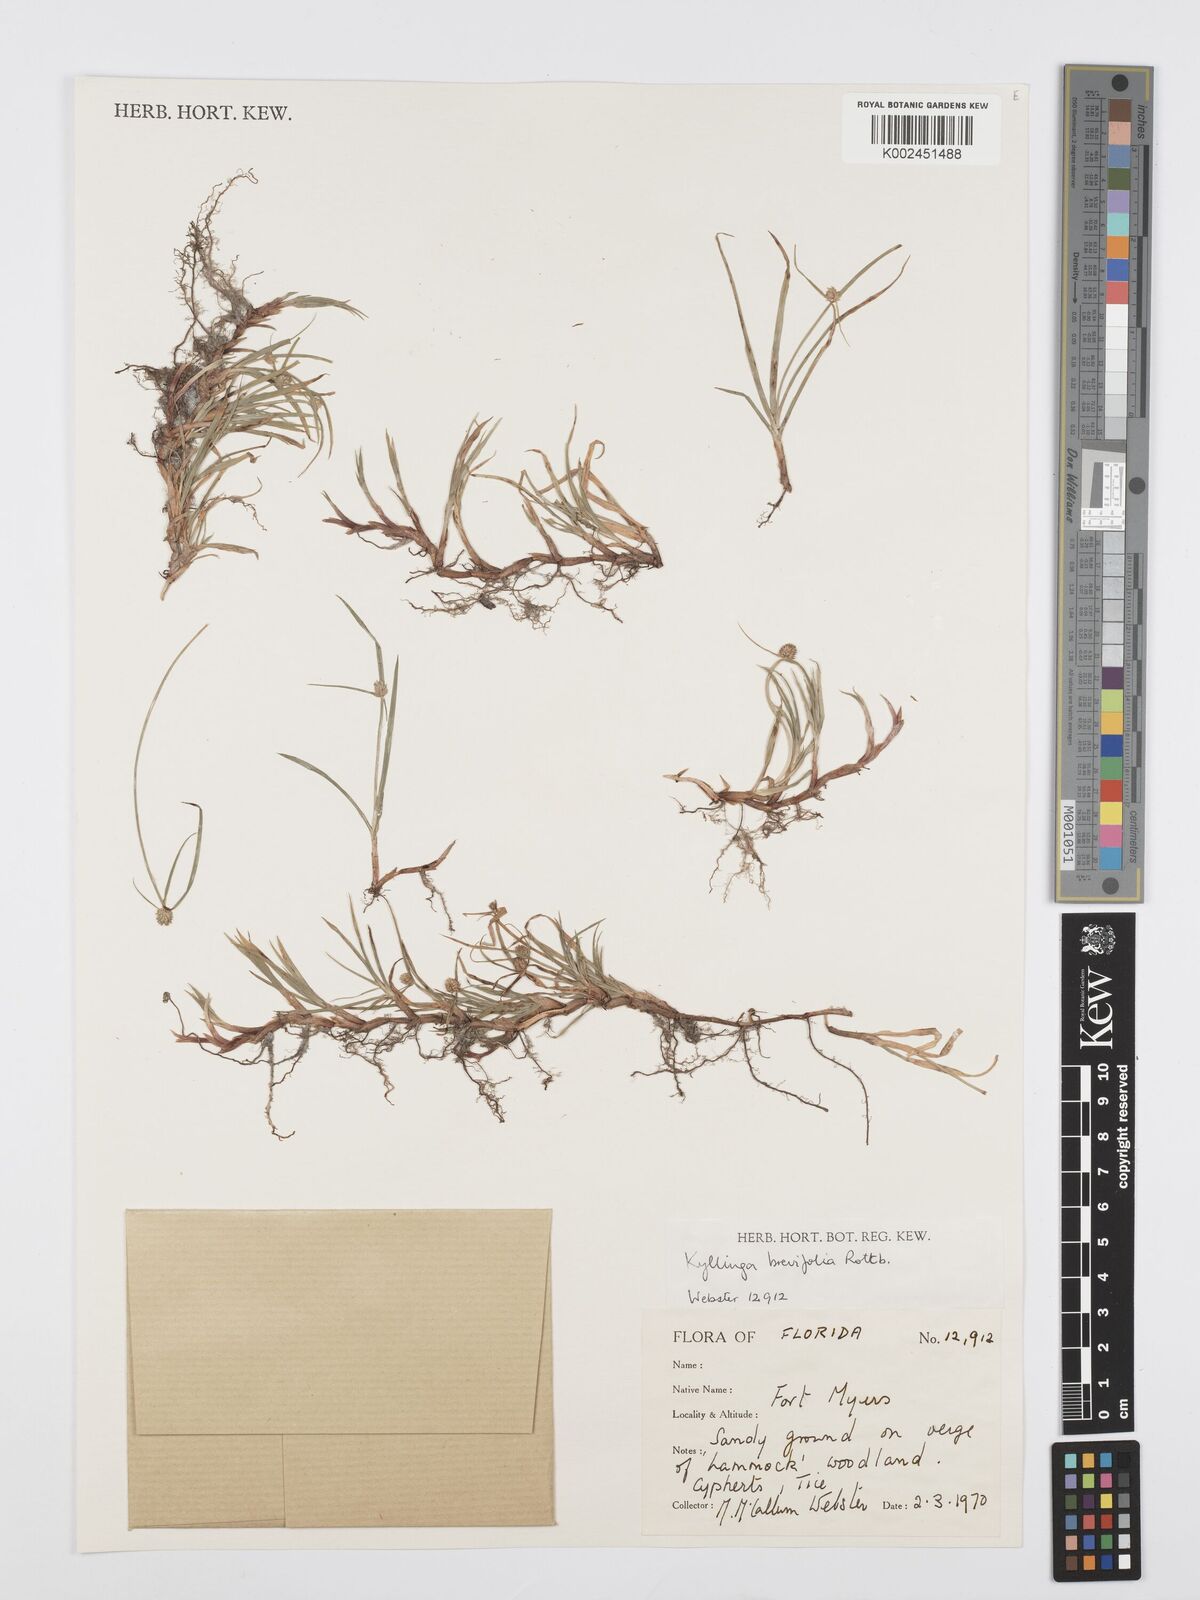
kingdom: Plantae
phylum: Tracheophyta
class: Liliopsida
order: Poales
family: Cyperaceae
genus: Cyperus
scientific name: Cyperus brevifolius
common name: Globe kyllinga
